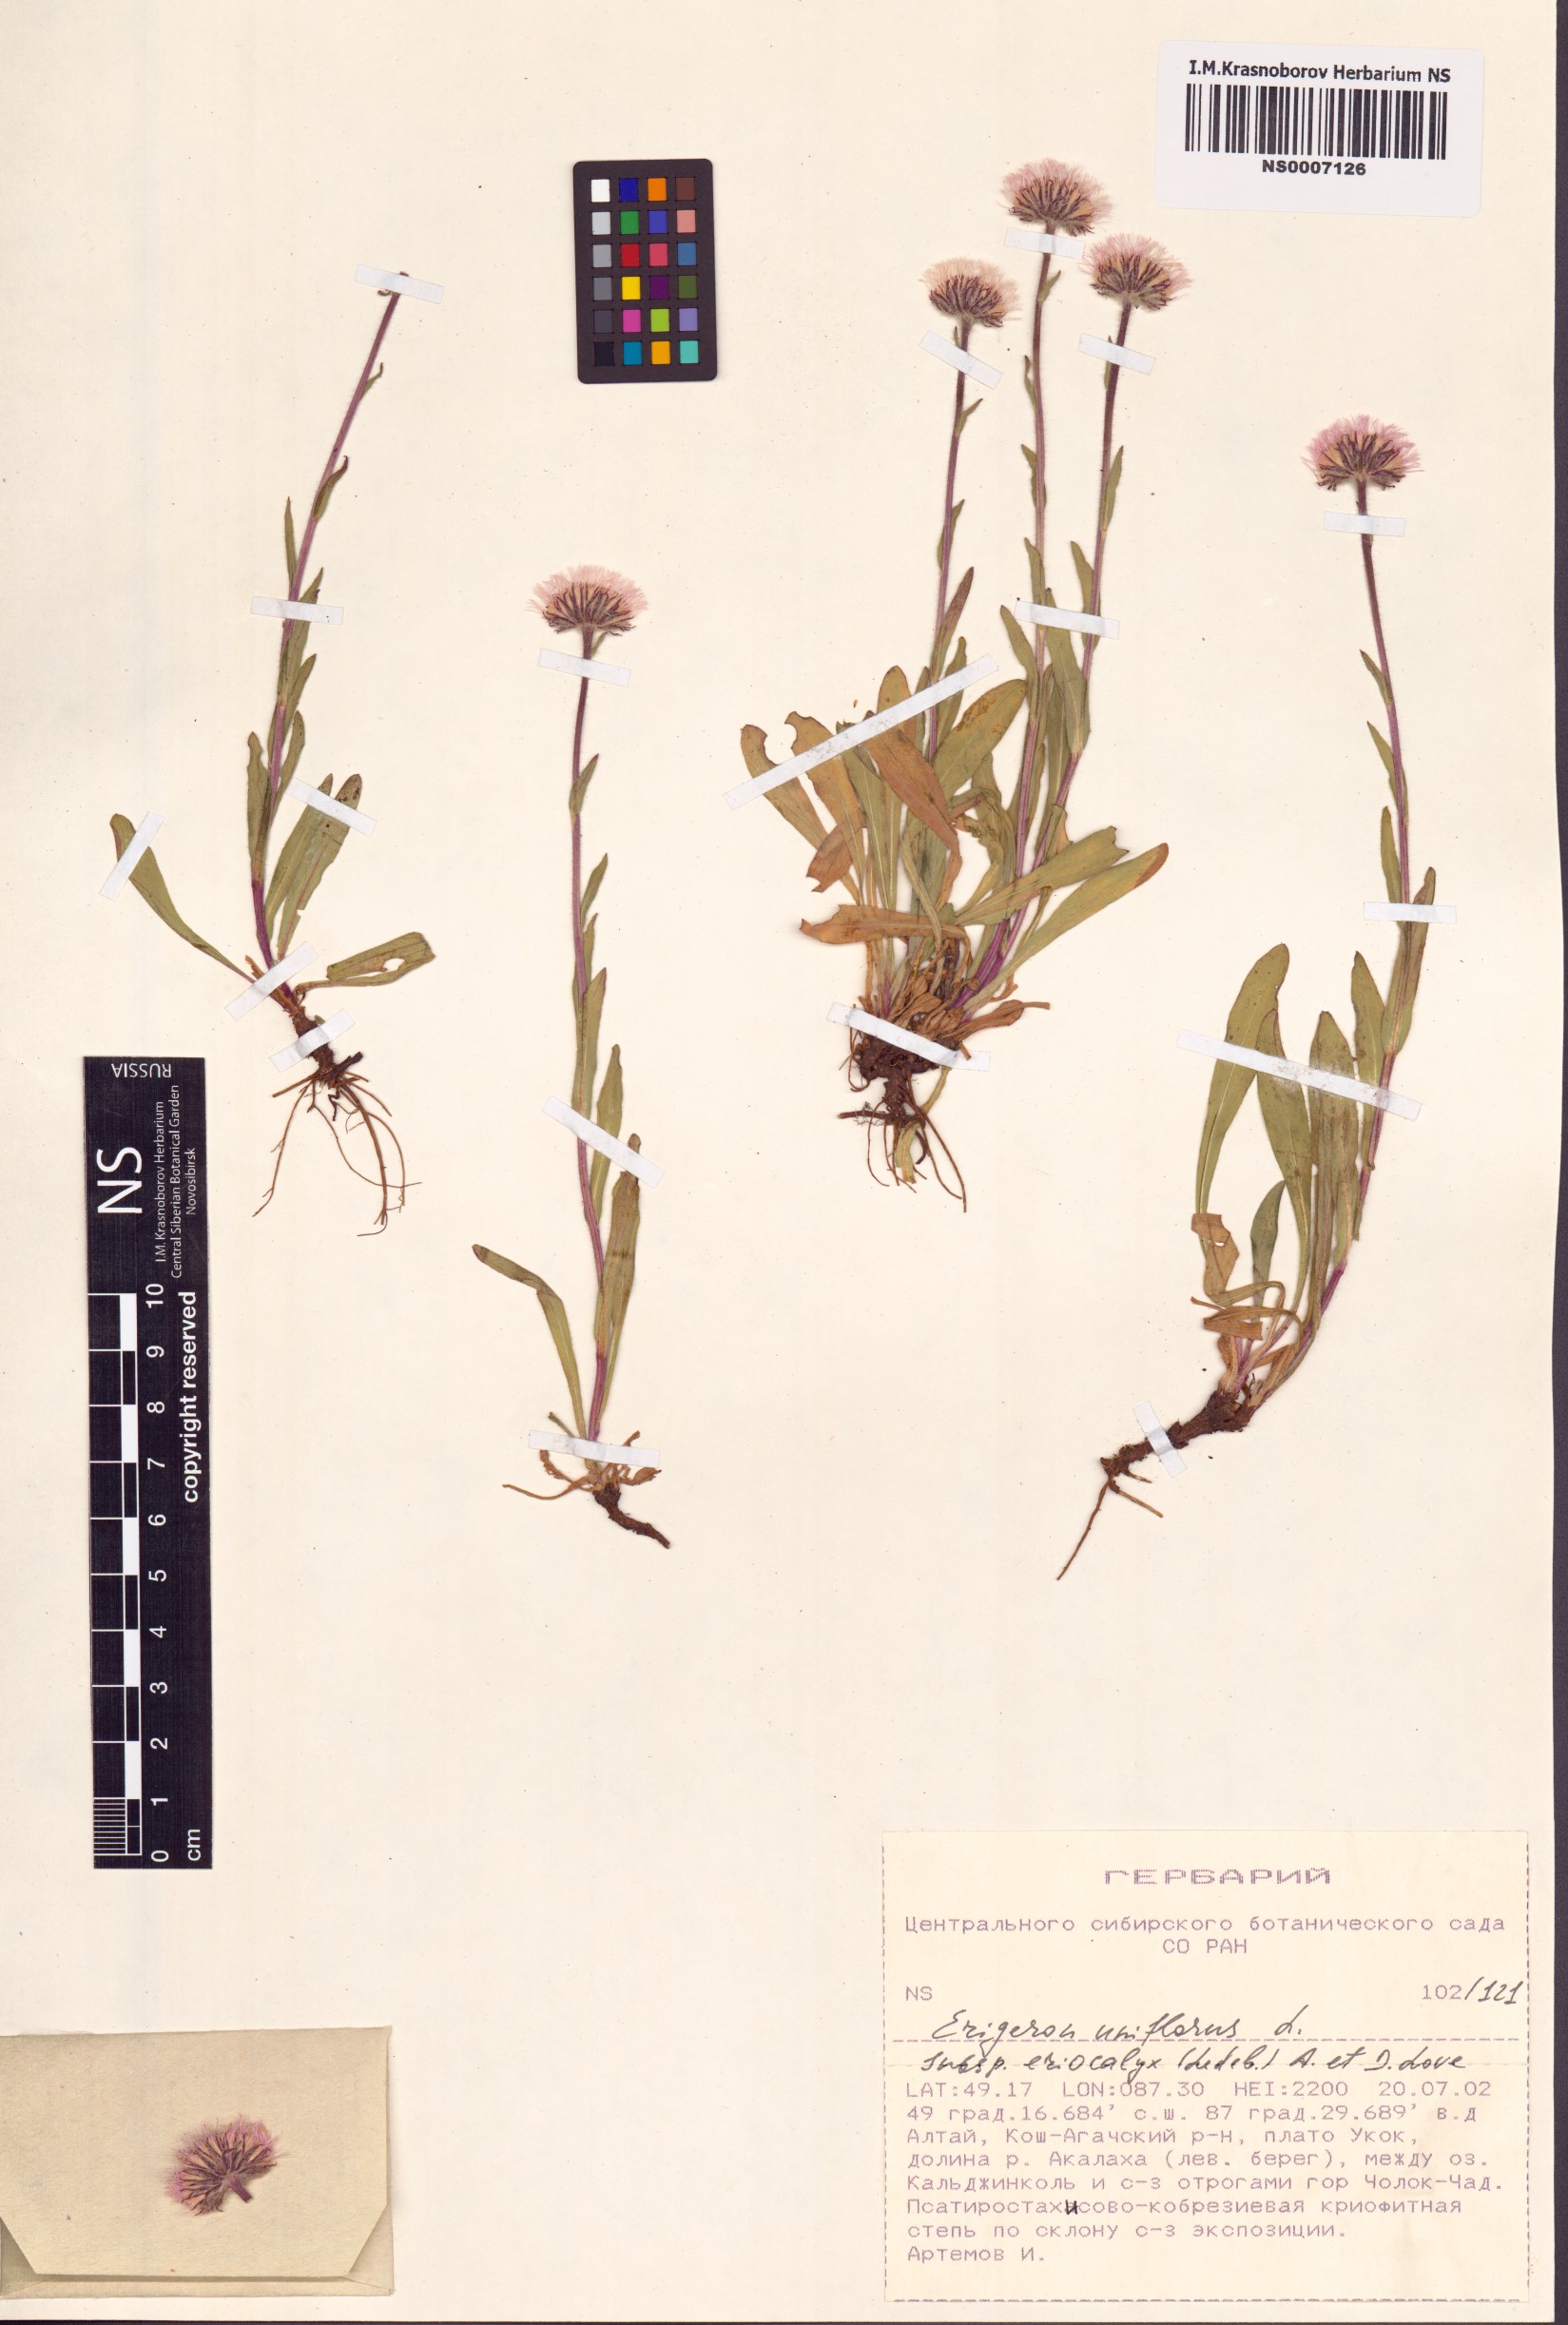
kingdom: Plantae
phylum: Tracheophyta
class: Magnoliopsida
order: Asterales
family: Asteraceae
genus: Erigeron
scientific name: Erigeron eriocalyx
